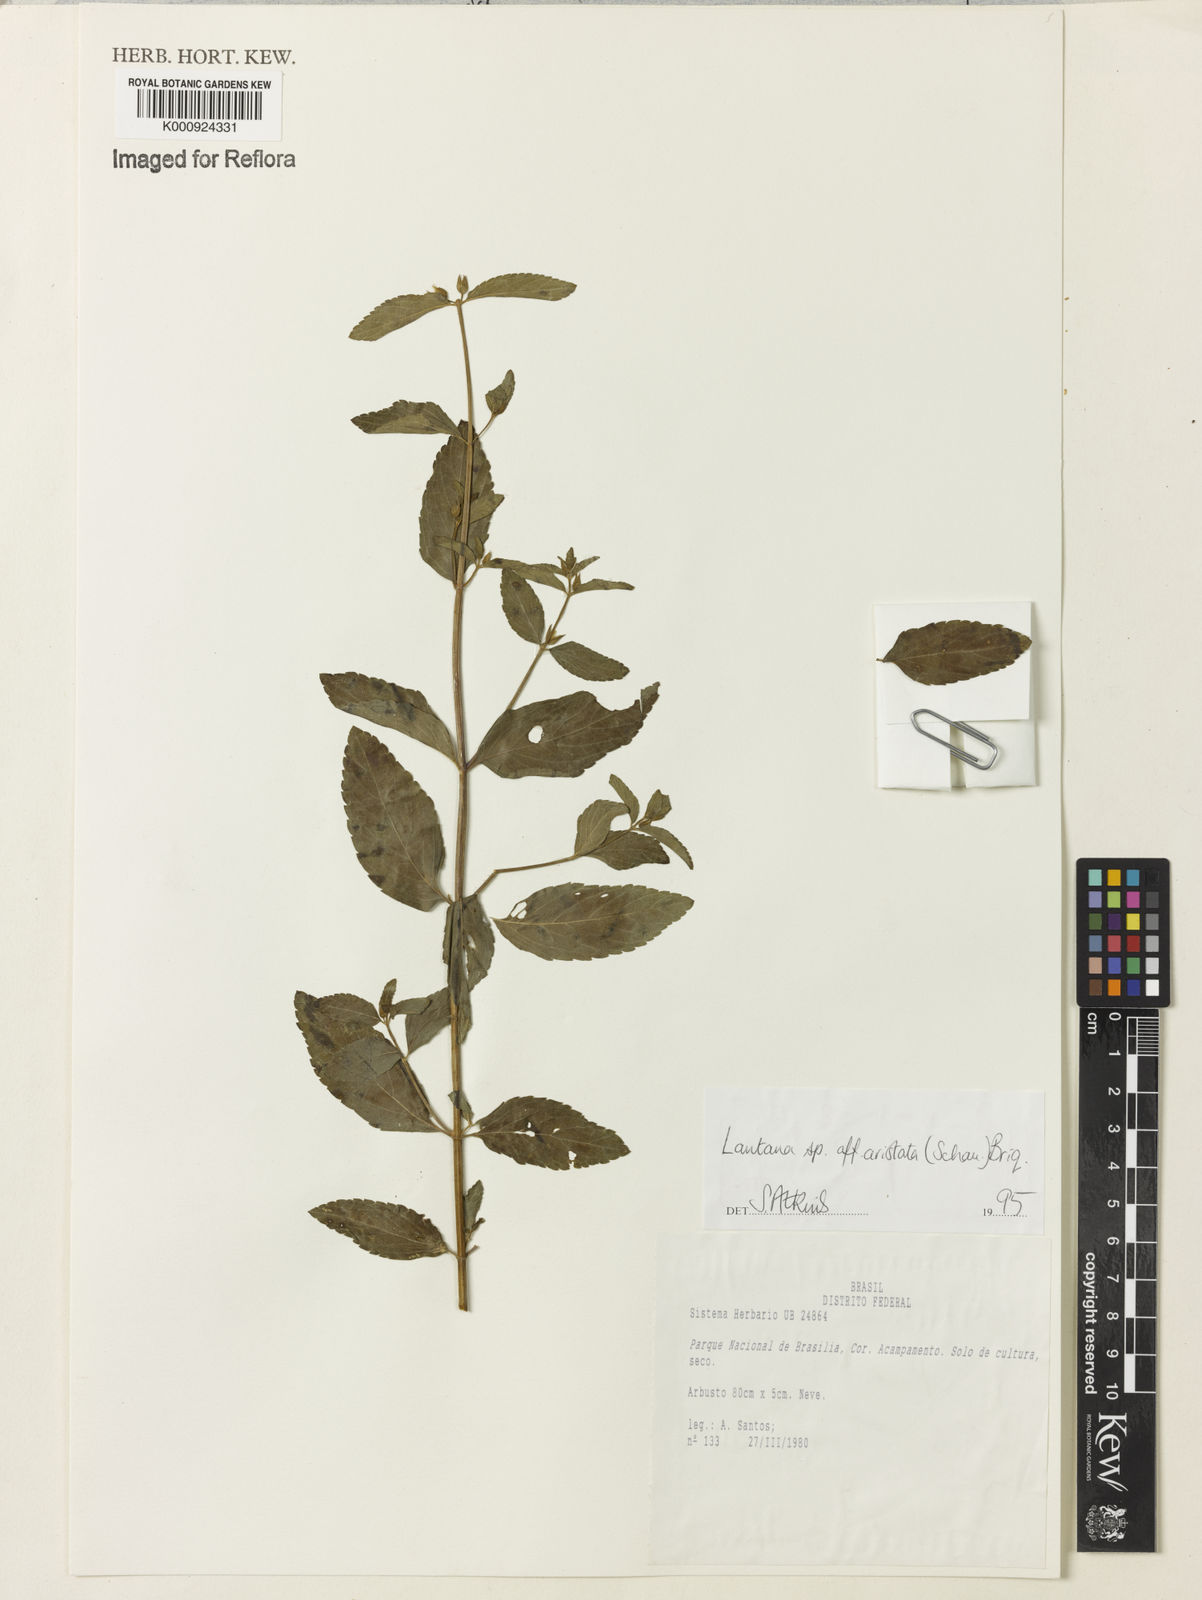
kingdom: Plantae
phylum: Tracheophyta
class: Magnoliopsida
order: Lamiales
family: Verbenaceae
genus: Lippia
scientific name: Lippia aristata
